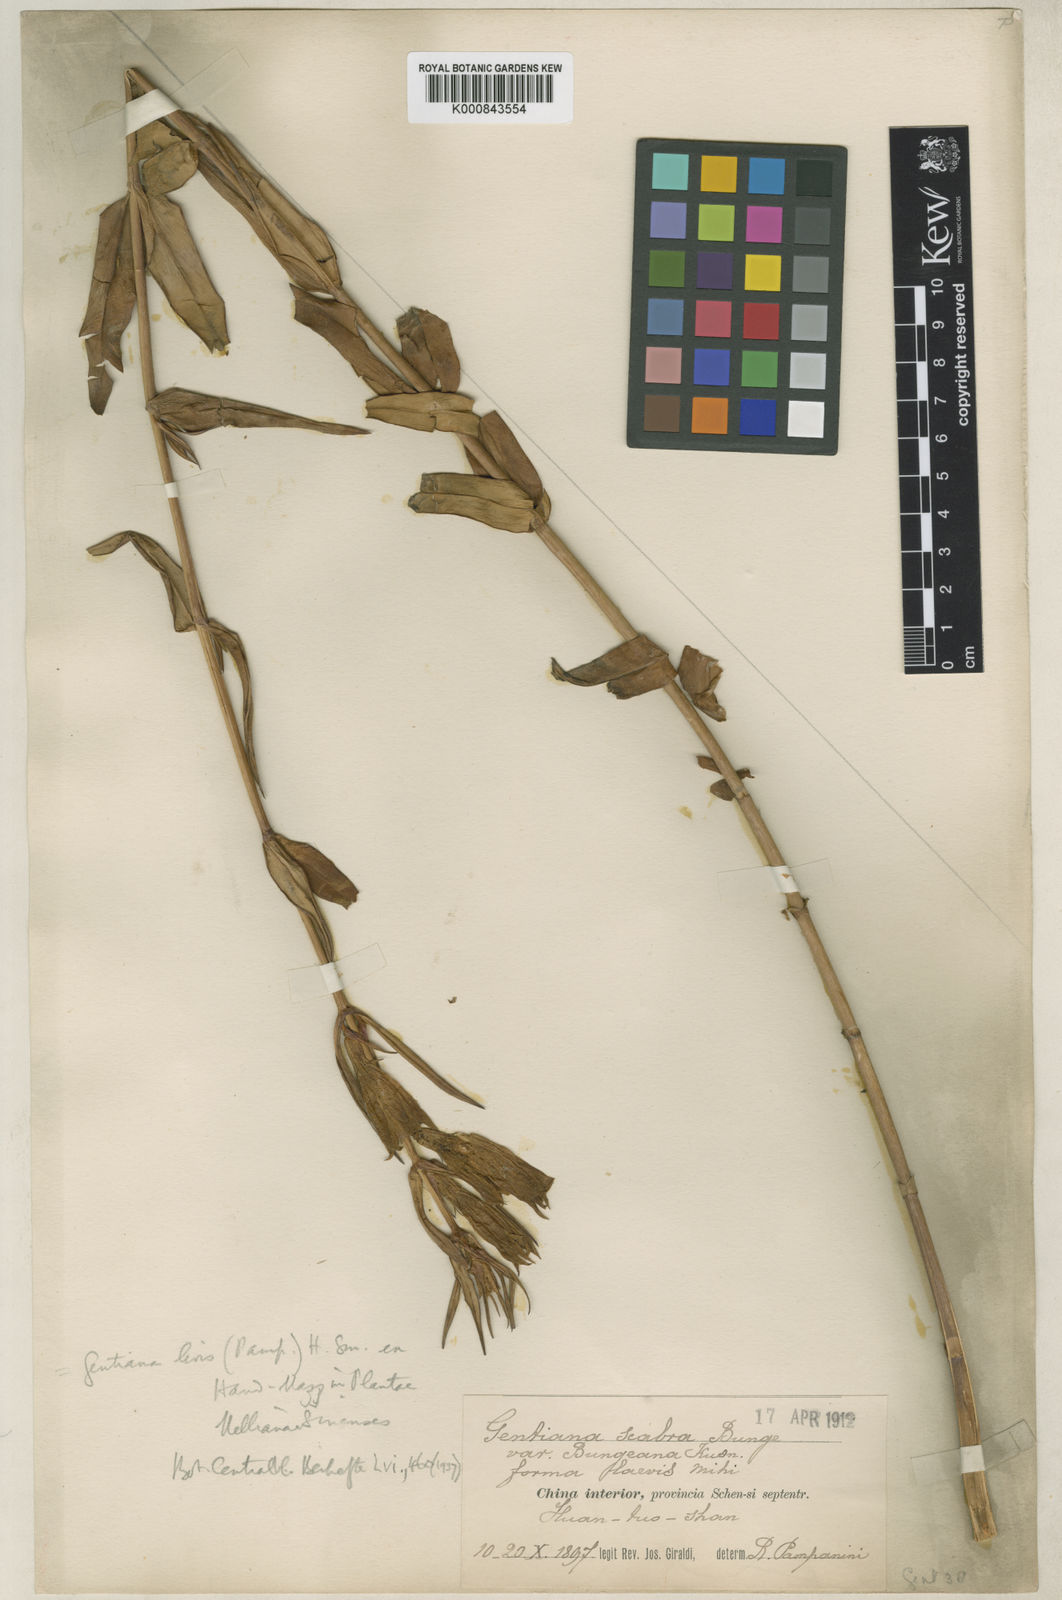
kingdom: Plantae
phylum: Tracheophyta
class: Magnoliopsida
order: Gentianales
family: Gentianaceae
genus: Gentiana
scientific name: Gentiana manshurica
